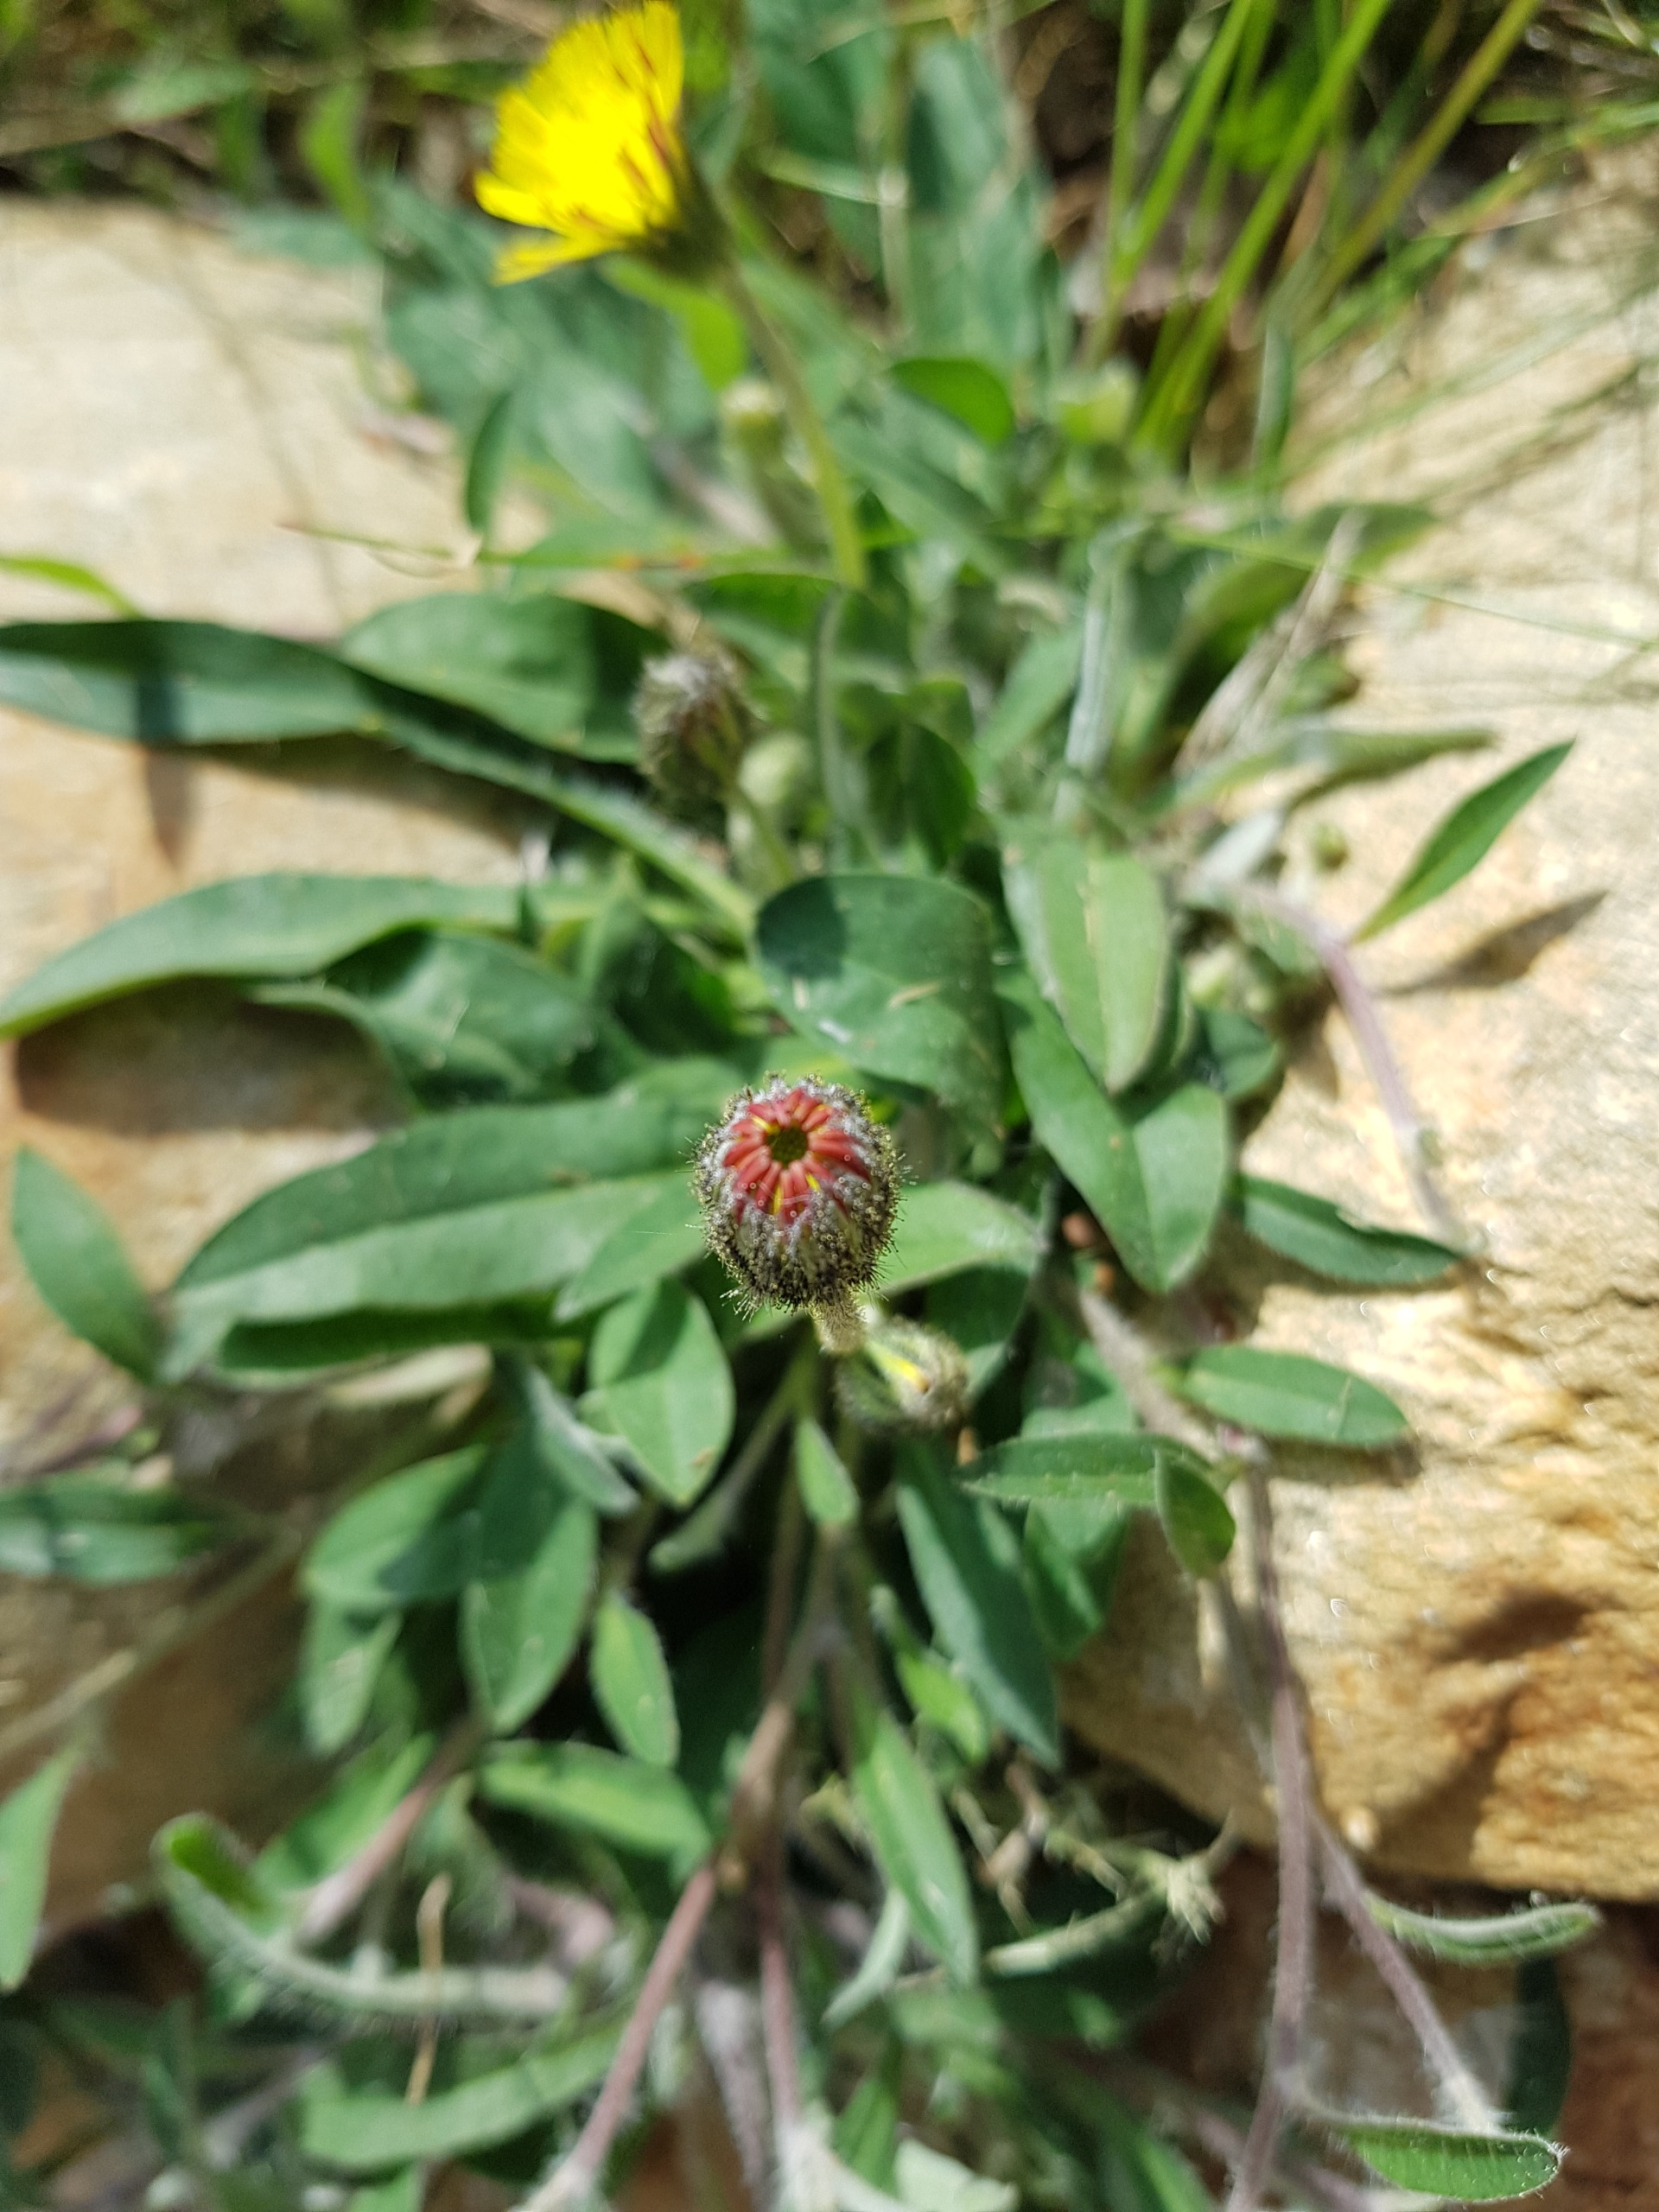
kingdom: Plantae
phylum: Tracheophyta
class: Magnoliopsida
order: Asterales
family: Asteraceae
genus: Pilosella
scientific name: Pilosella officinarum
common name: Håret høgeurt
